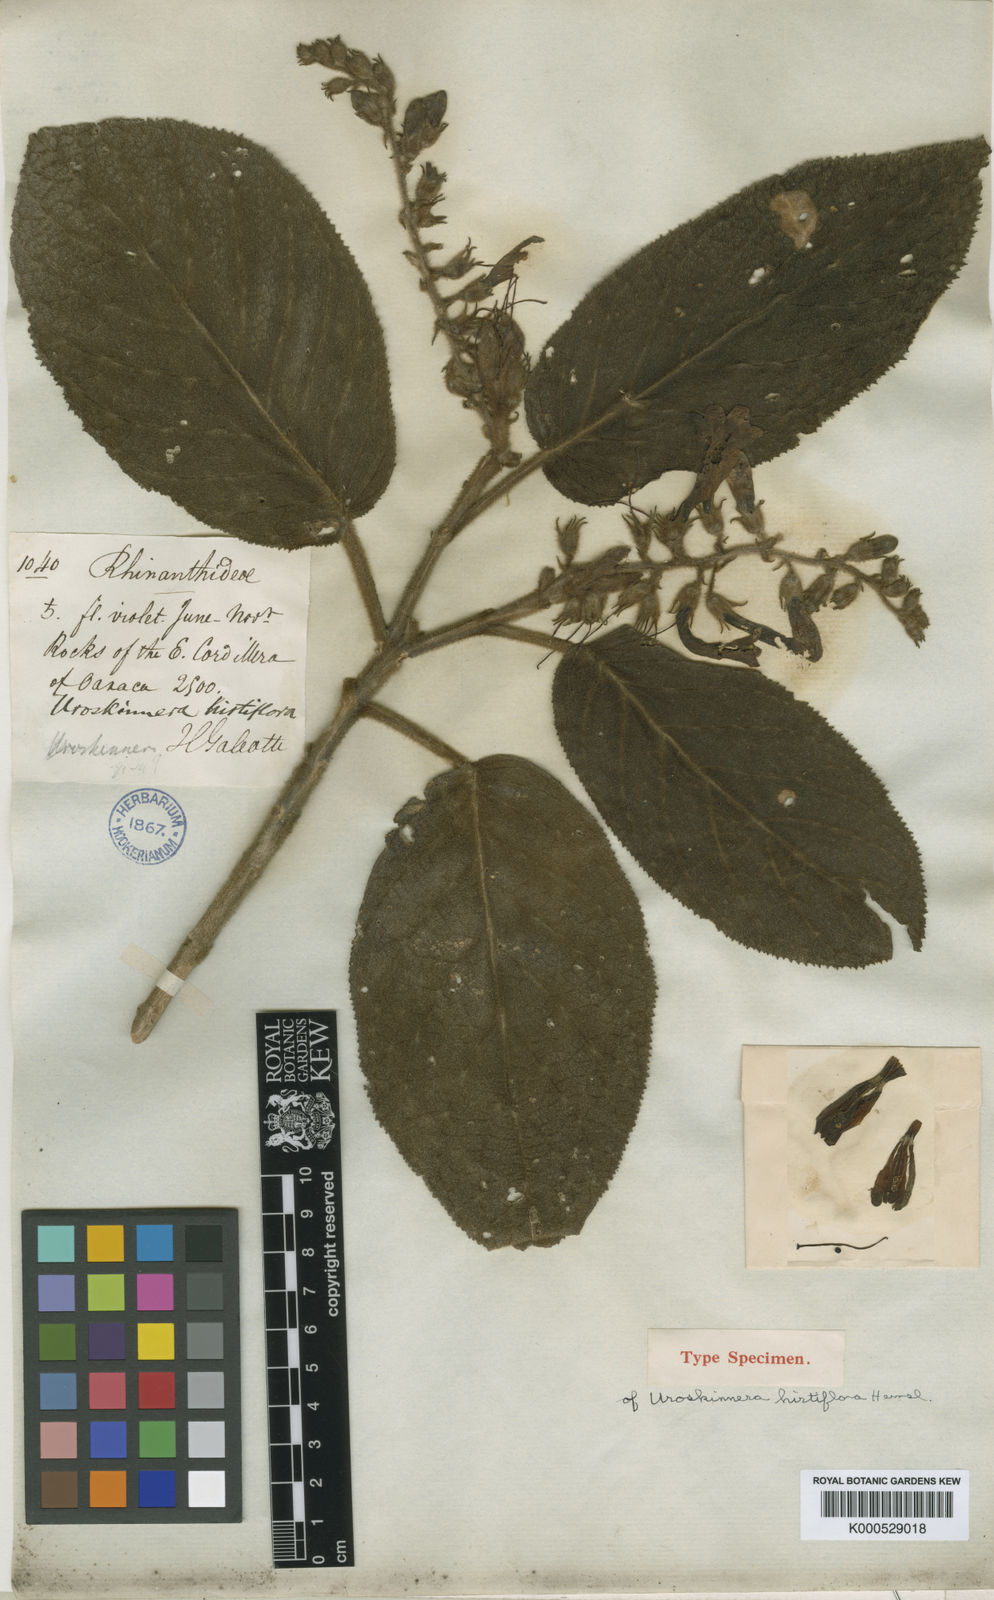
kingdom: Plantae
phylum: Tracheophyta
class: Magnoliopsida
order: Lamiales
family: Plantaginaceae
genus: Uroskinnera
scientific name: Uroskinnera hirtiflora
